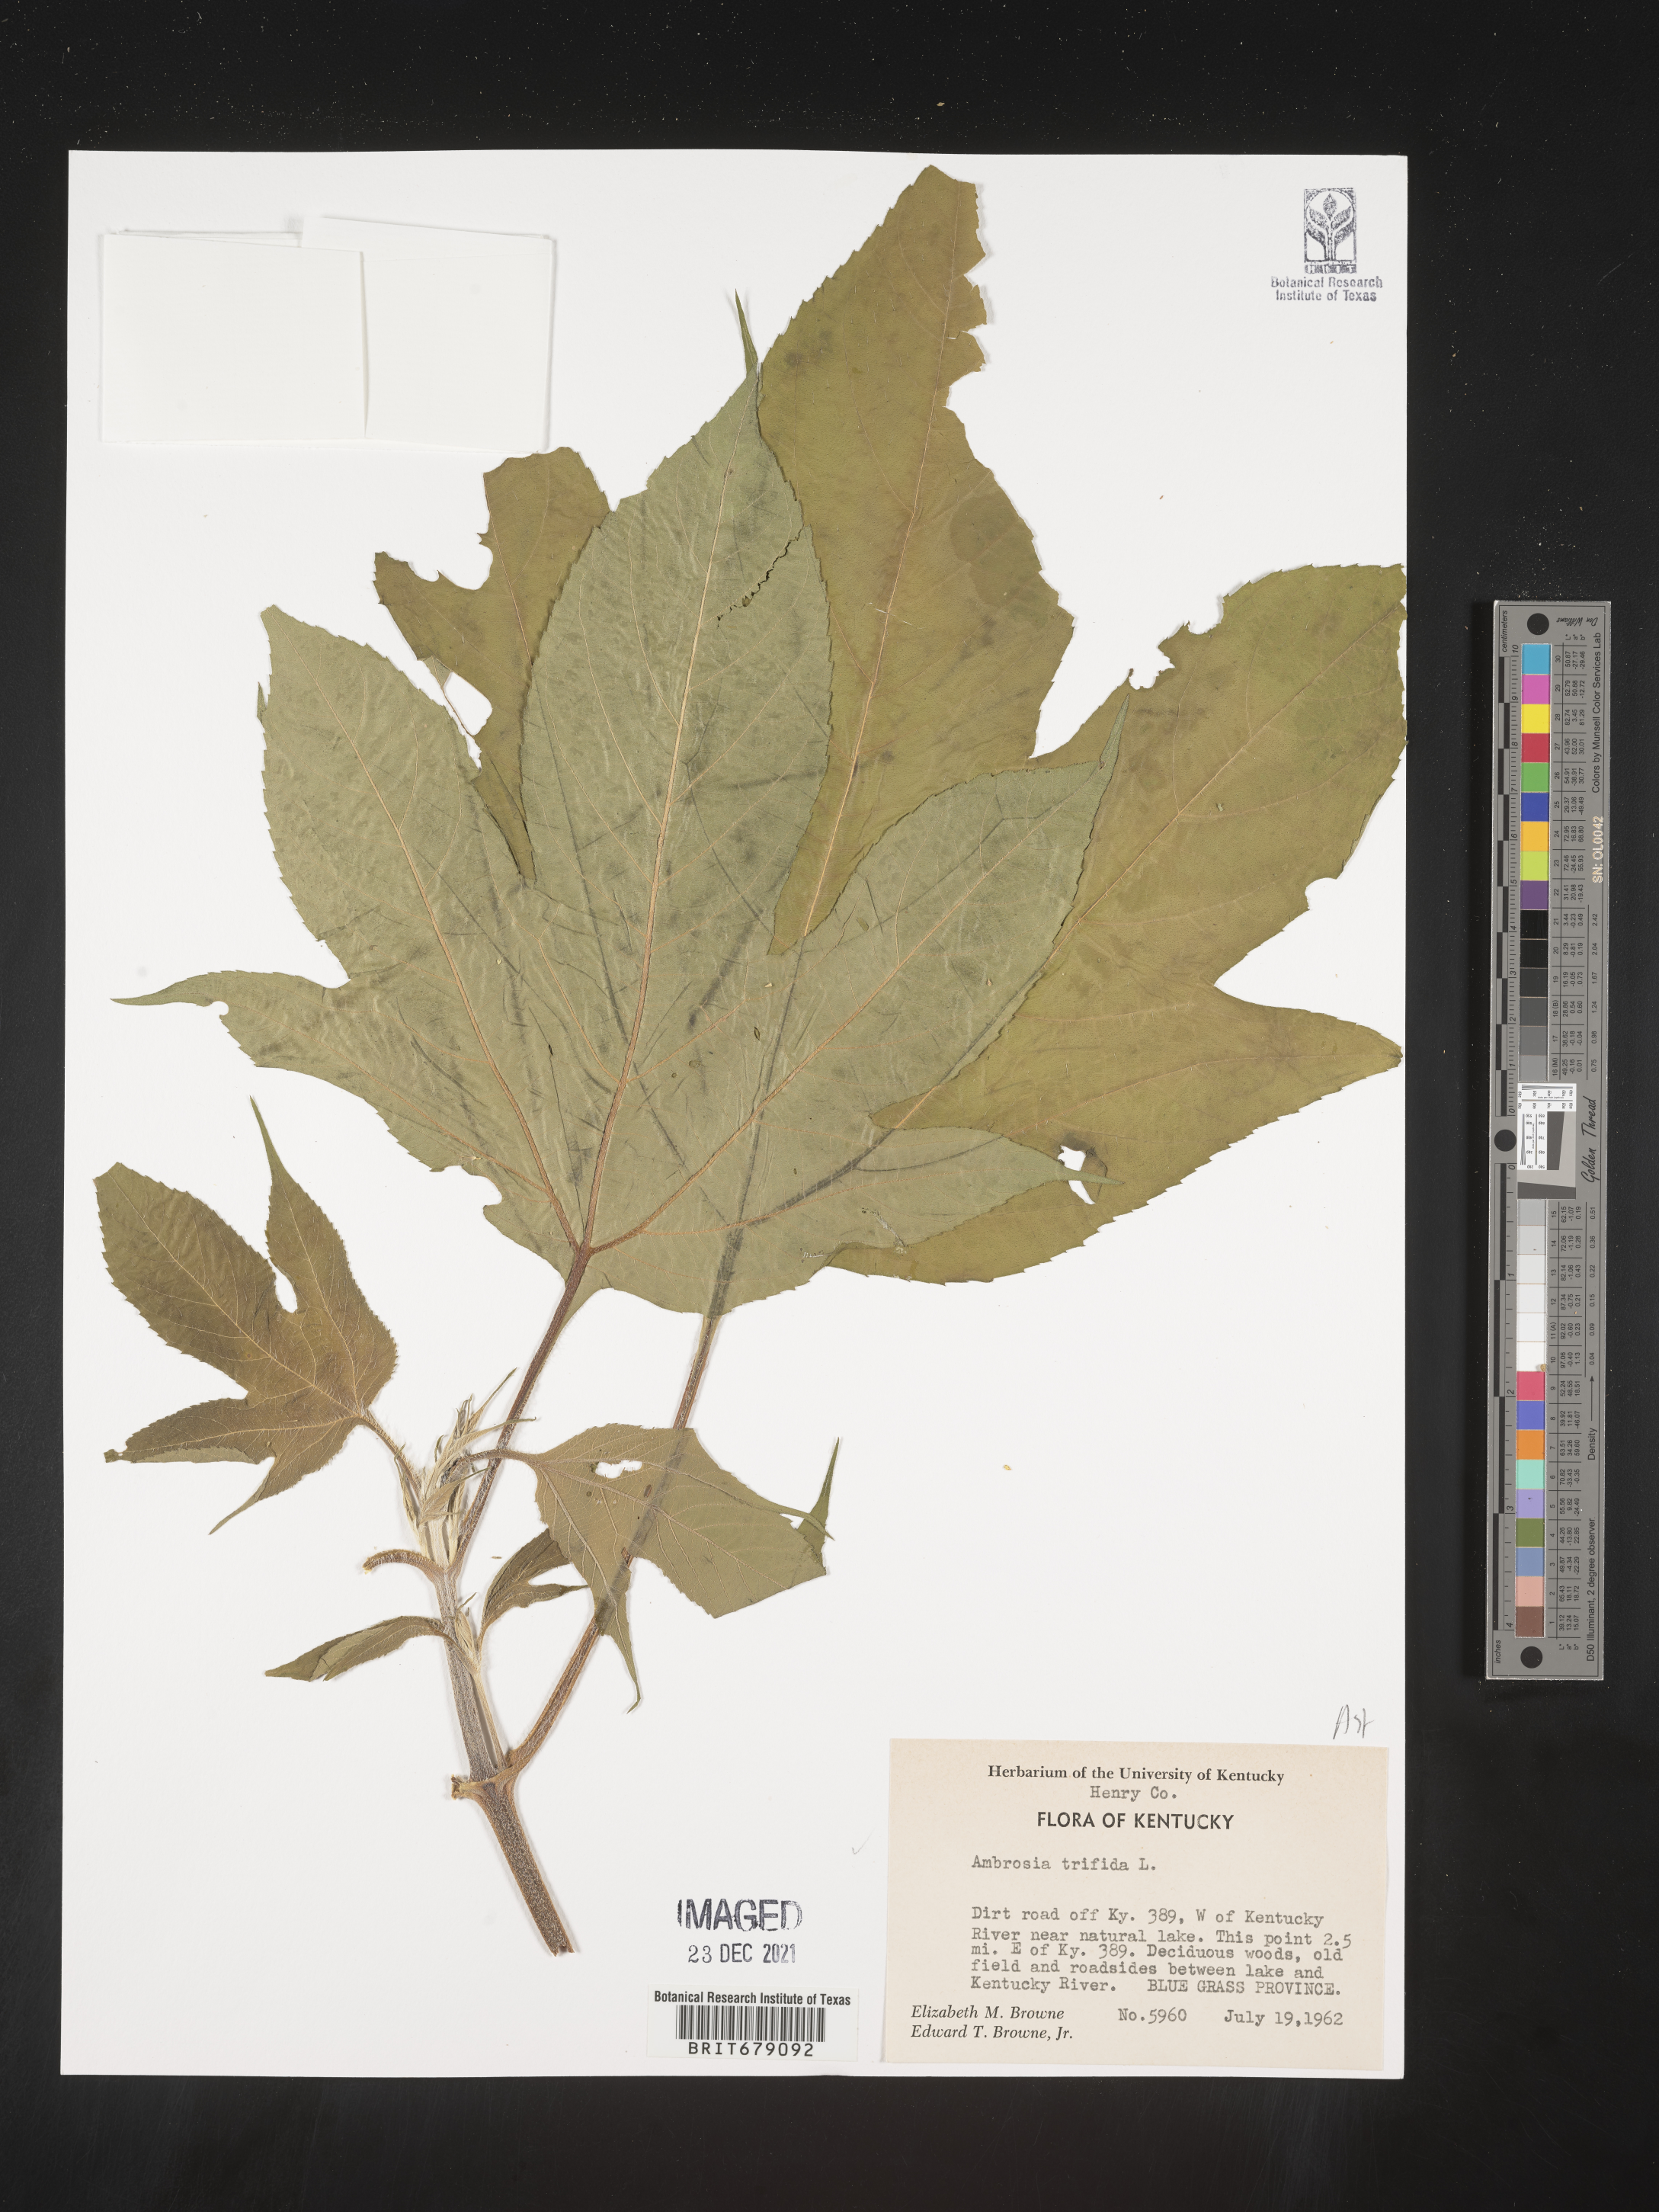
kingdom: Plantae
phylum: Tracheophyta
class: Magnoliopsida
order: Asterales
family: Asteraceae
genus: Ambrosia
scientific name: Ambrosia trifida
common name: Giant ragweed
